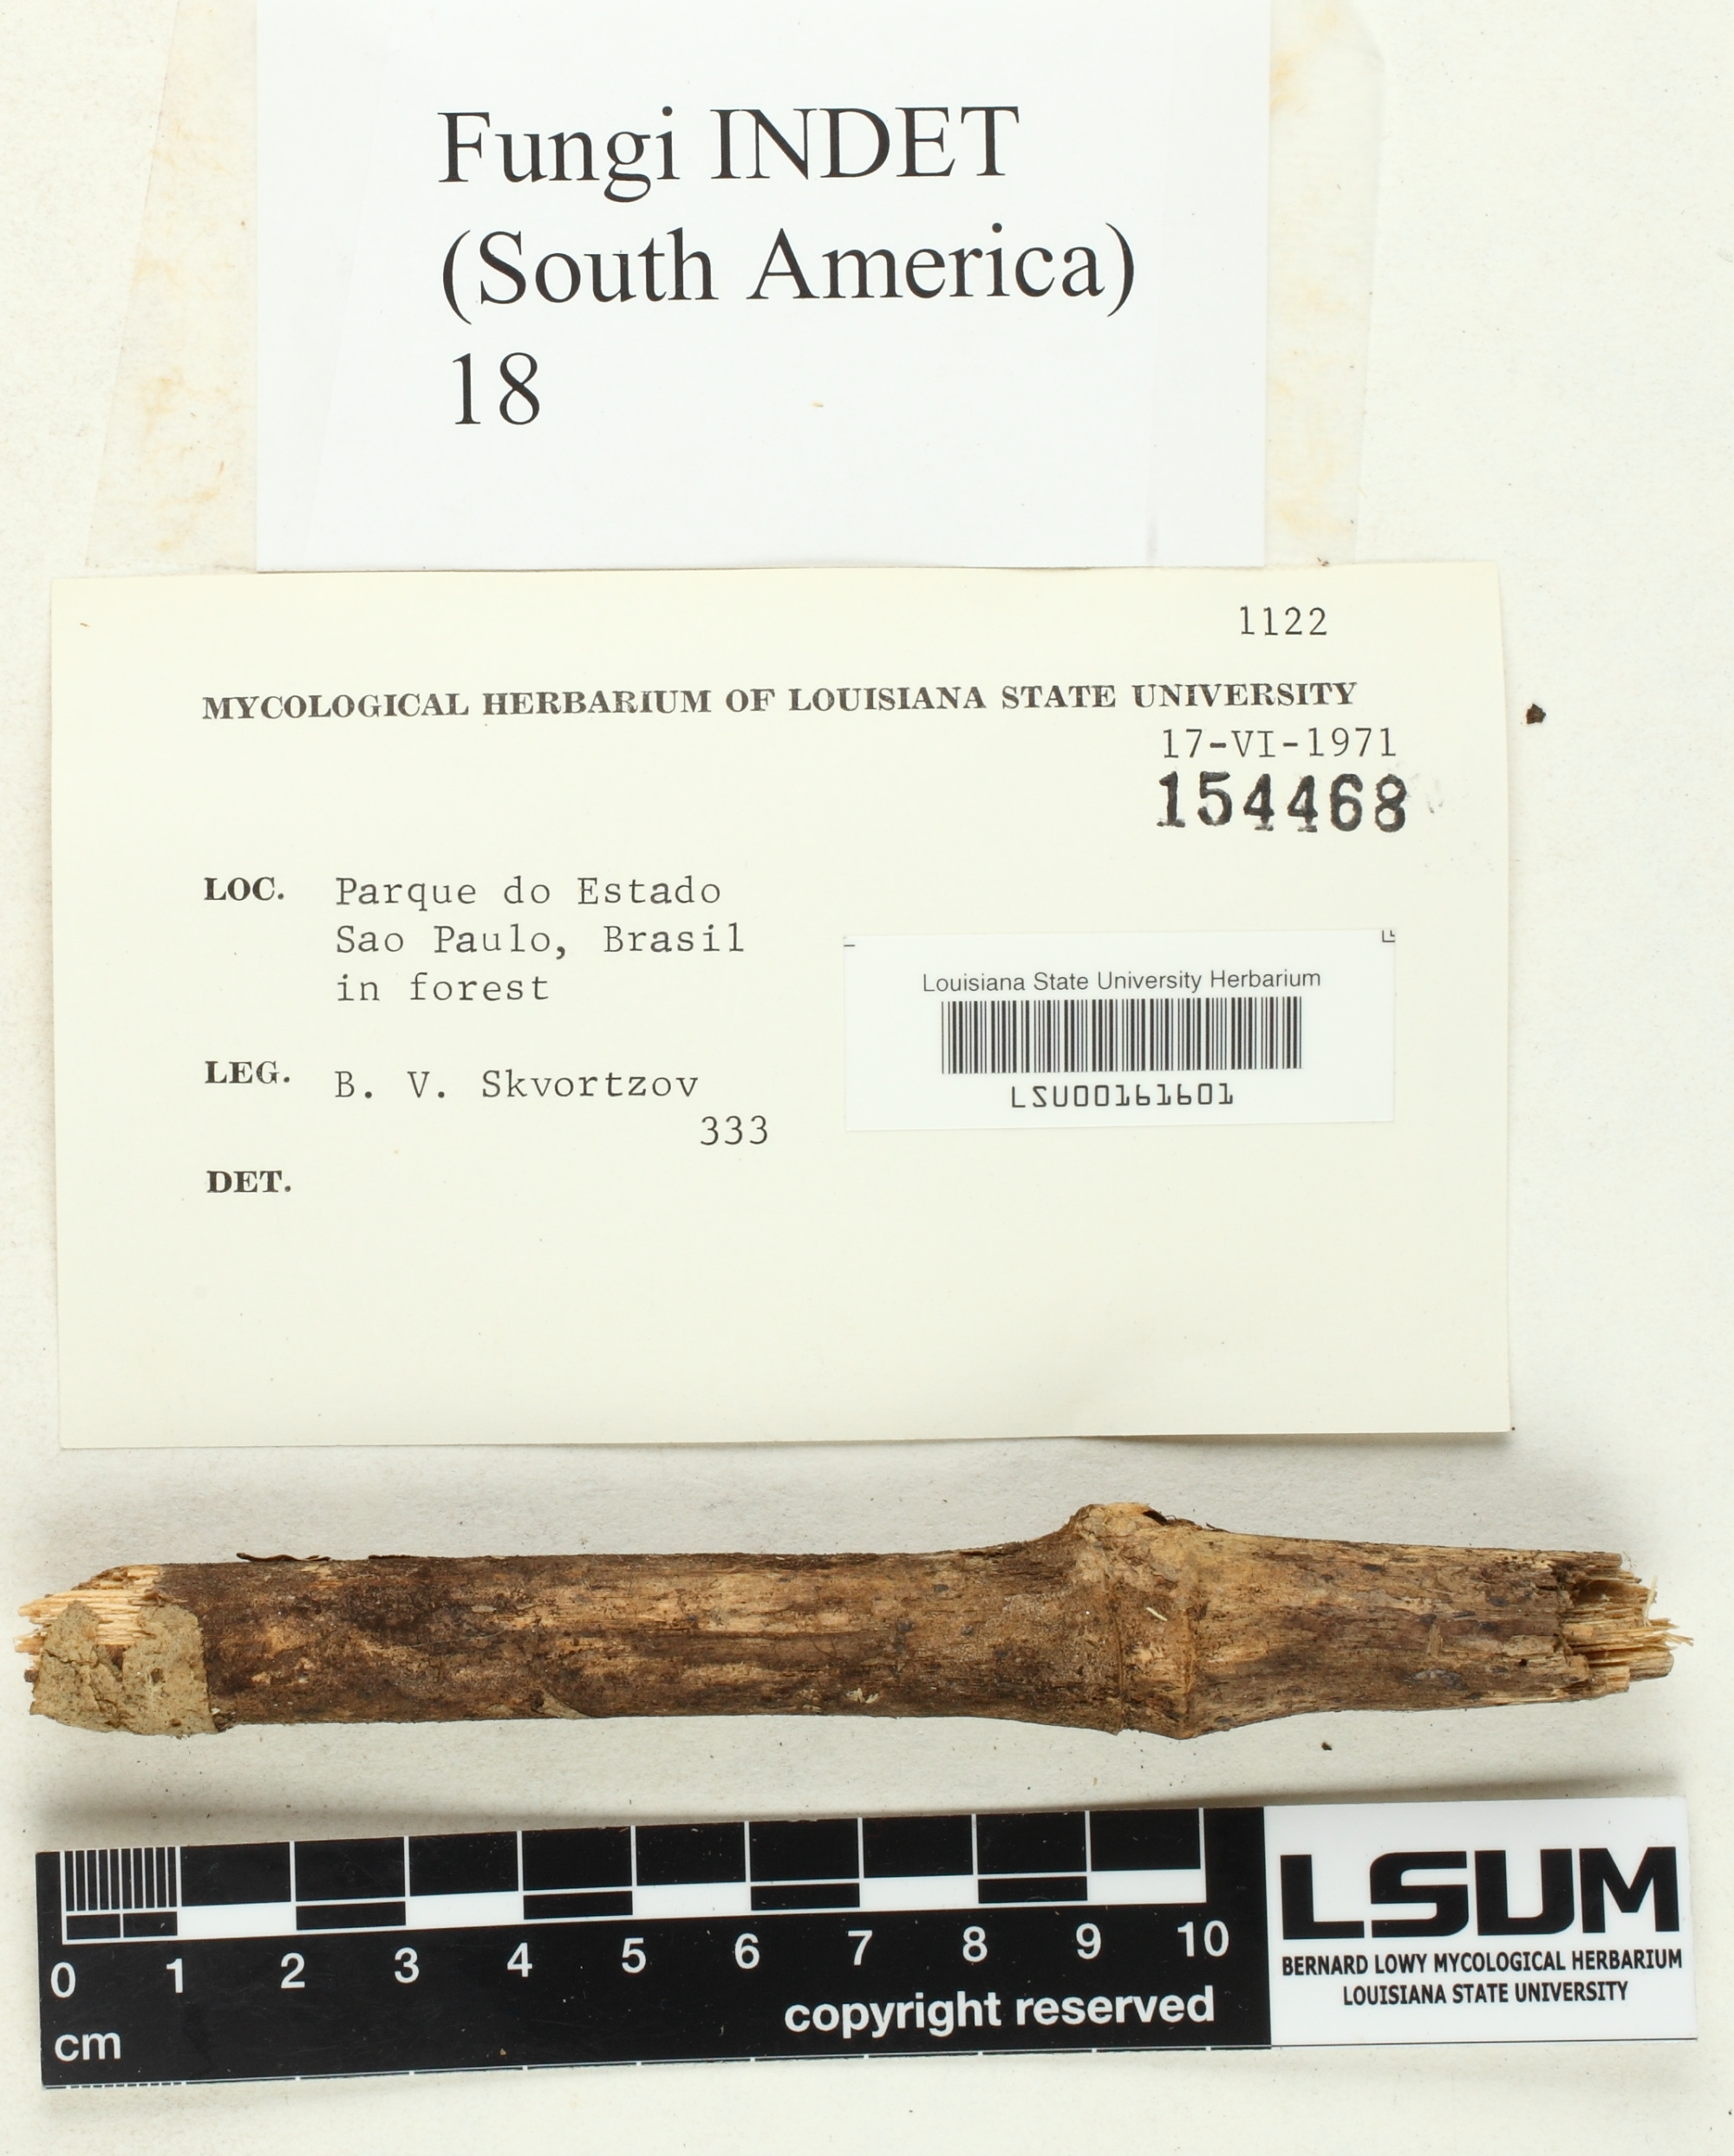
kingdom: Fungi
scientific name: Fungi
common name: Fungi
